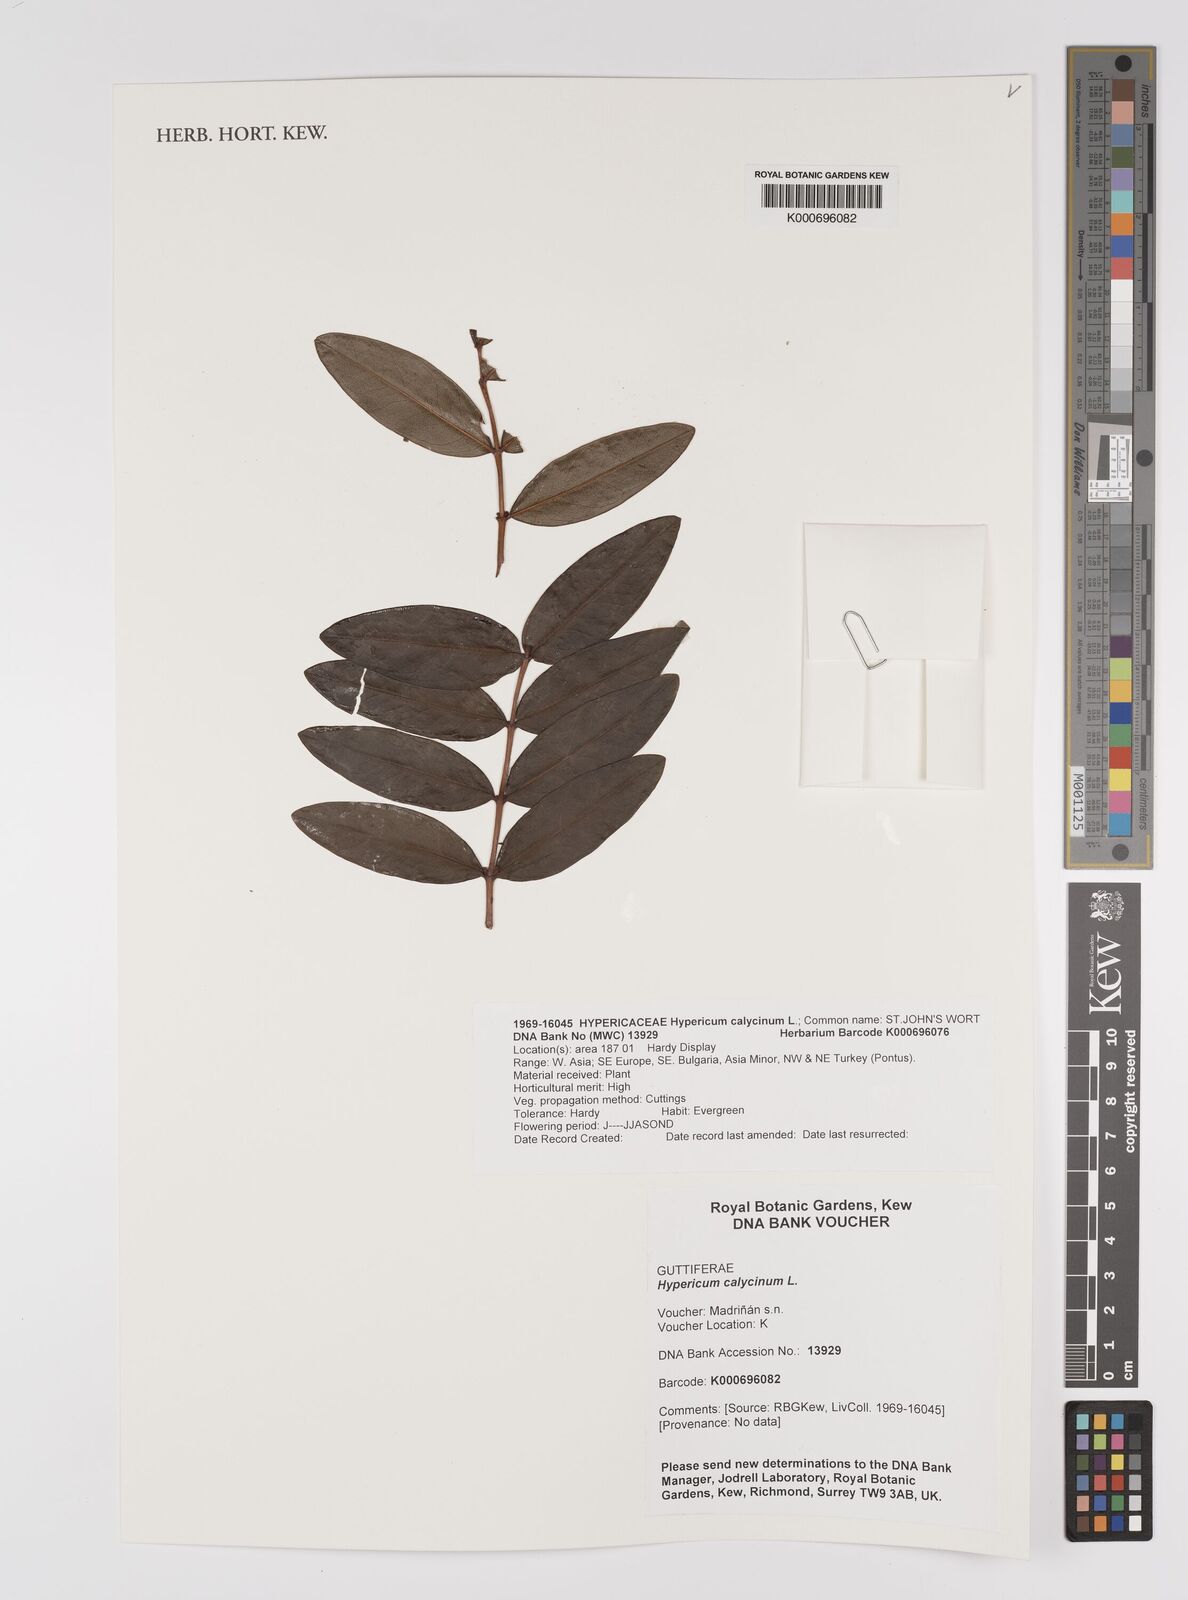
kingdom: Plantae
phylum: Tracheophyta
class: Magnoliopsida
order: Malpighiales
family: Hypericaceae
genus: Hypericum
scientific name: Hypericum calycinum
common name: Rose-of-sharon
